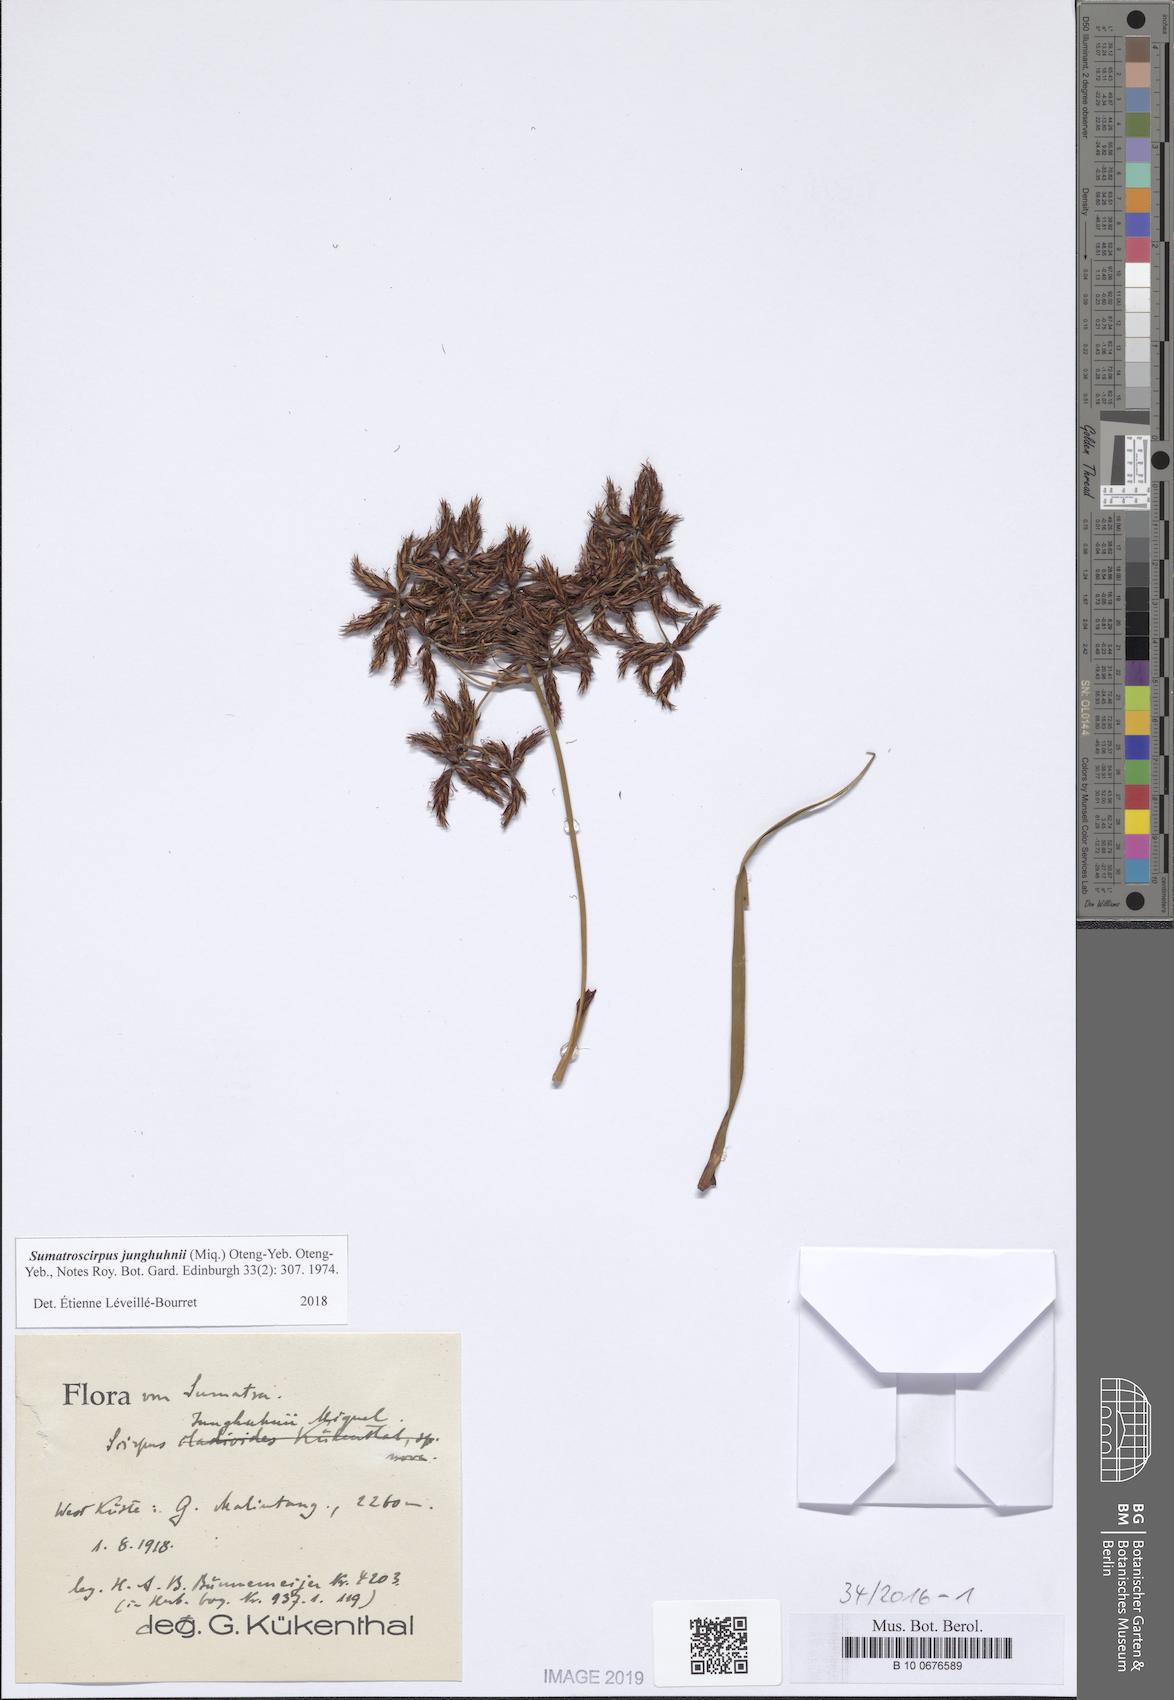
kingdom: Plantae
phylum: Tracheophyta
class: Liliopsida
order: Poales
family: Cyperaceae
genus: Sumatroscirpus
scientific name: Sumatroscirpus junghuhnii
